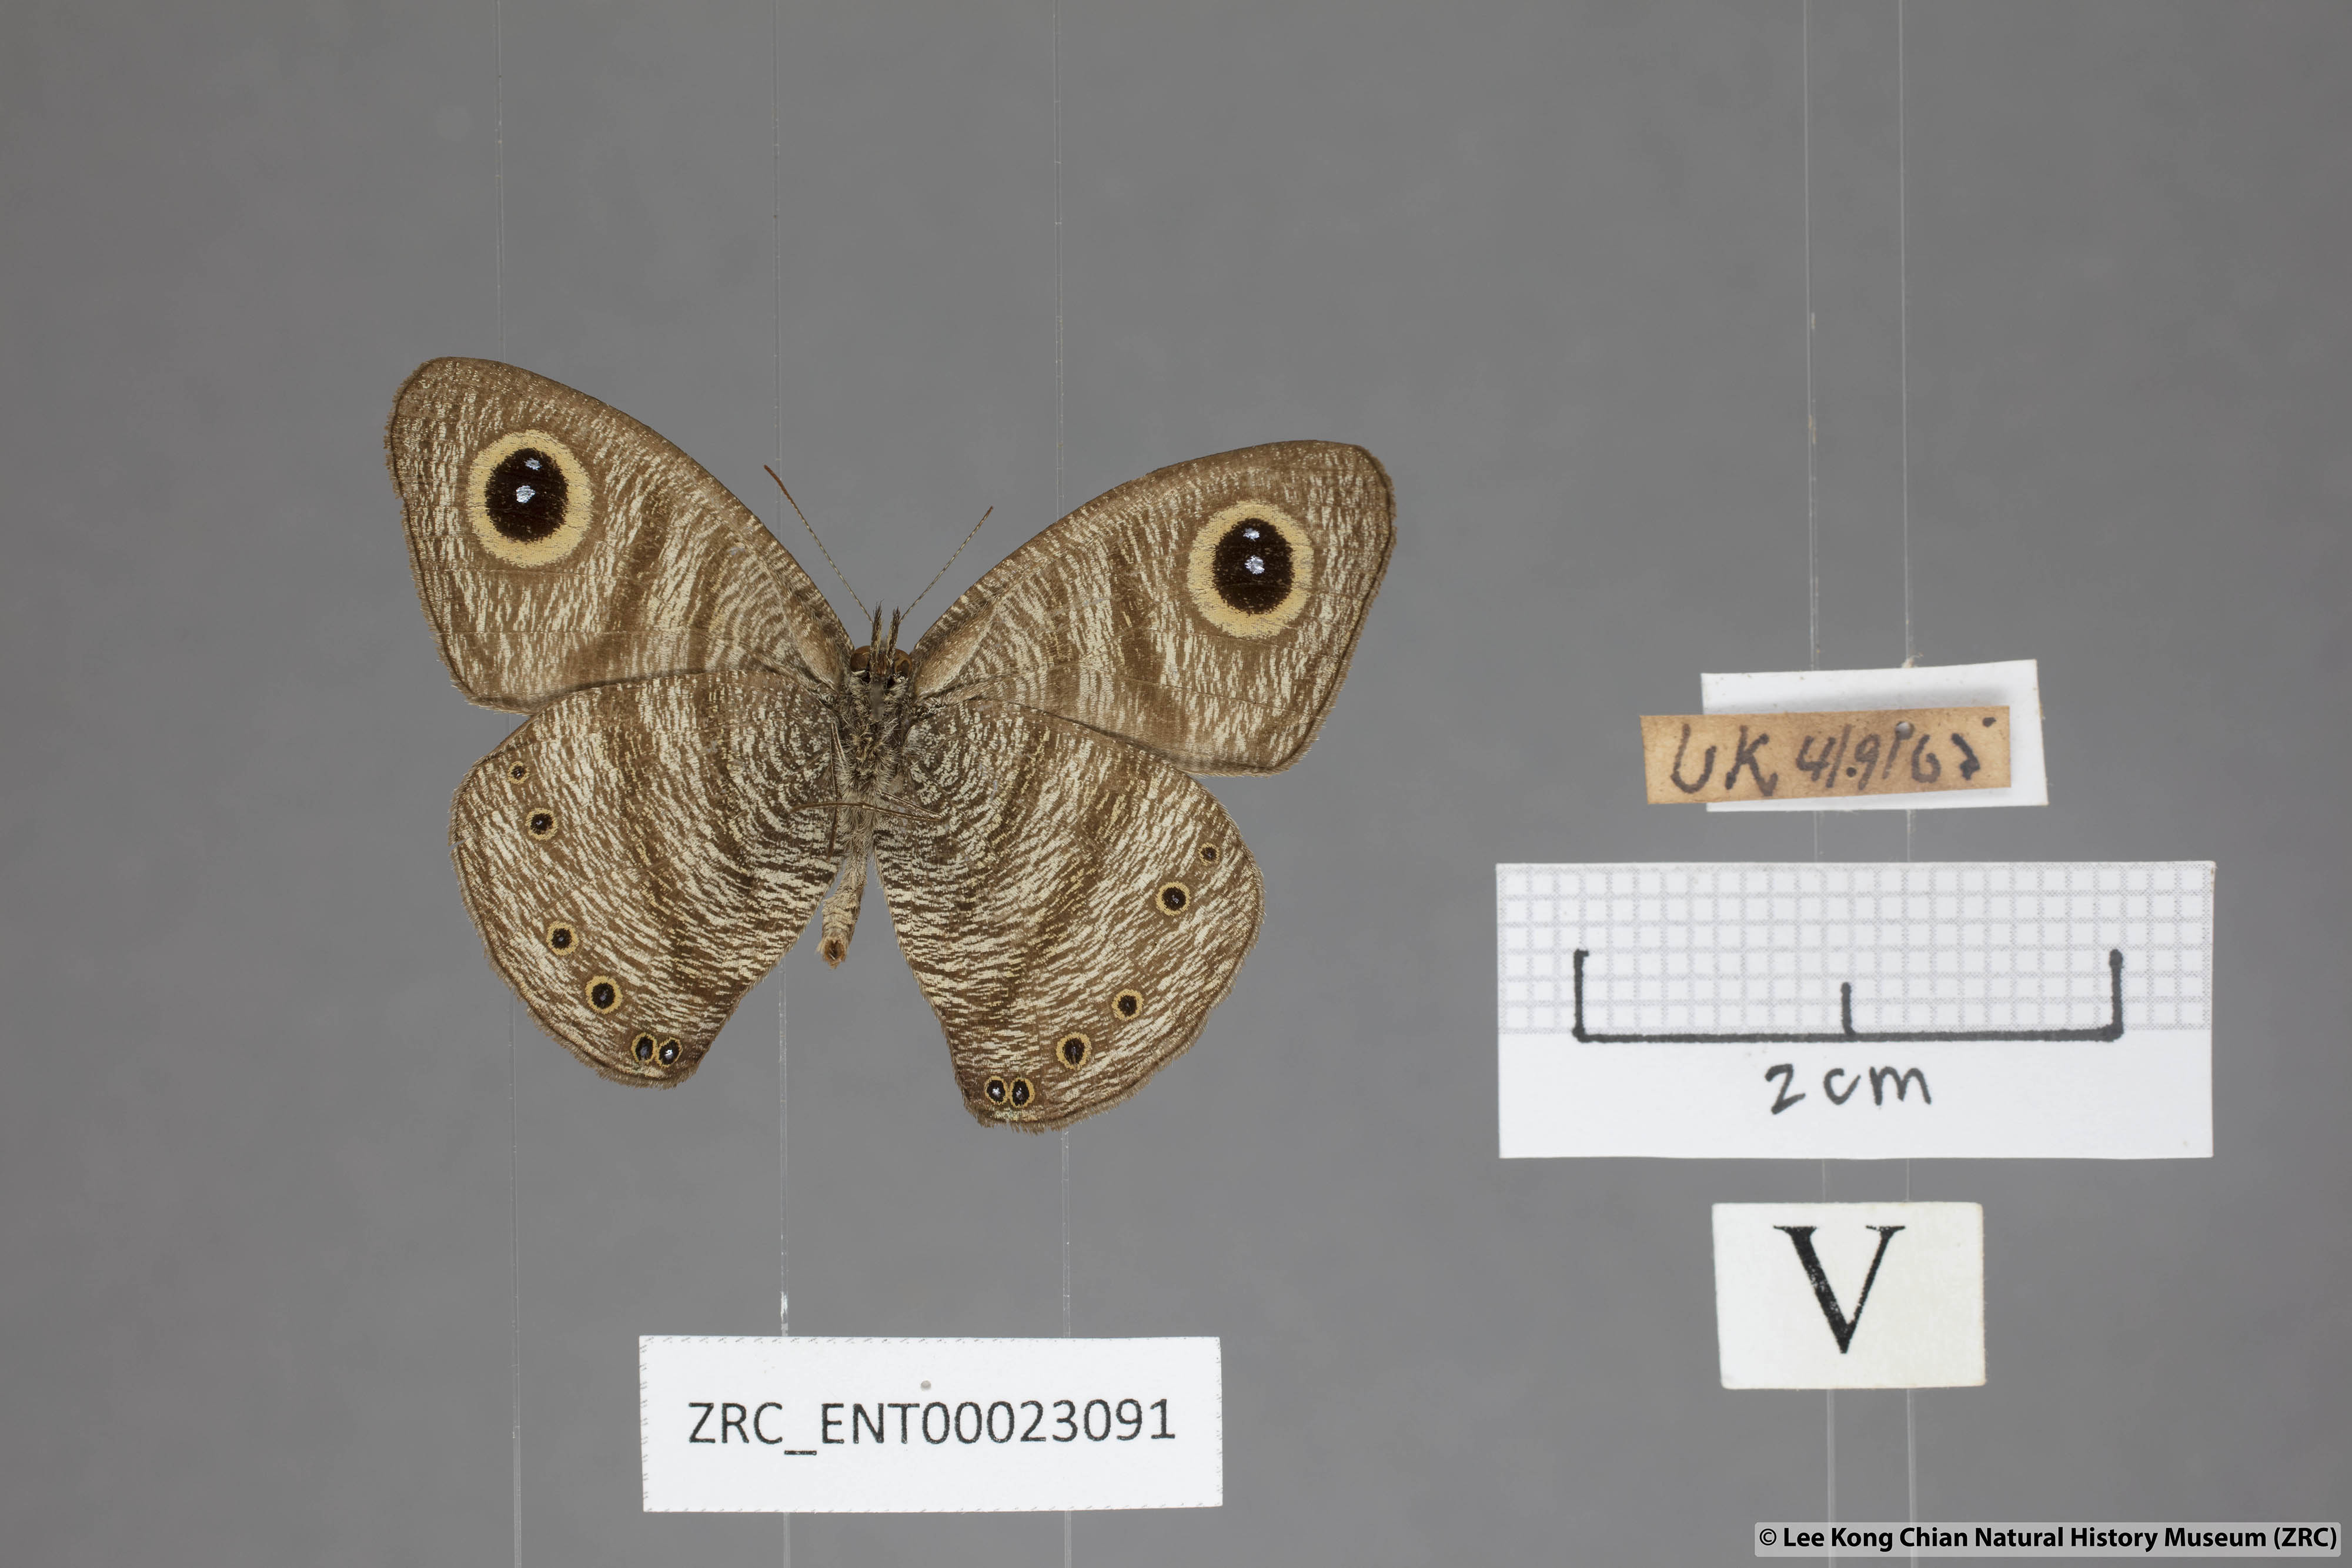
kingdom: Animalia
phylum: Arthropoda
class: Insecta
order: Lepidoptera
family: Nymphalidae
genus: Ypthima
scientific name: Ypthima fasciata
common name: Malayan six-ring
